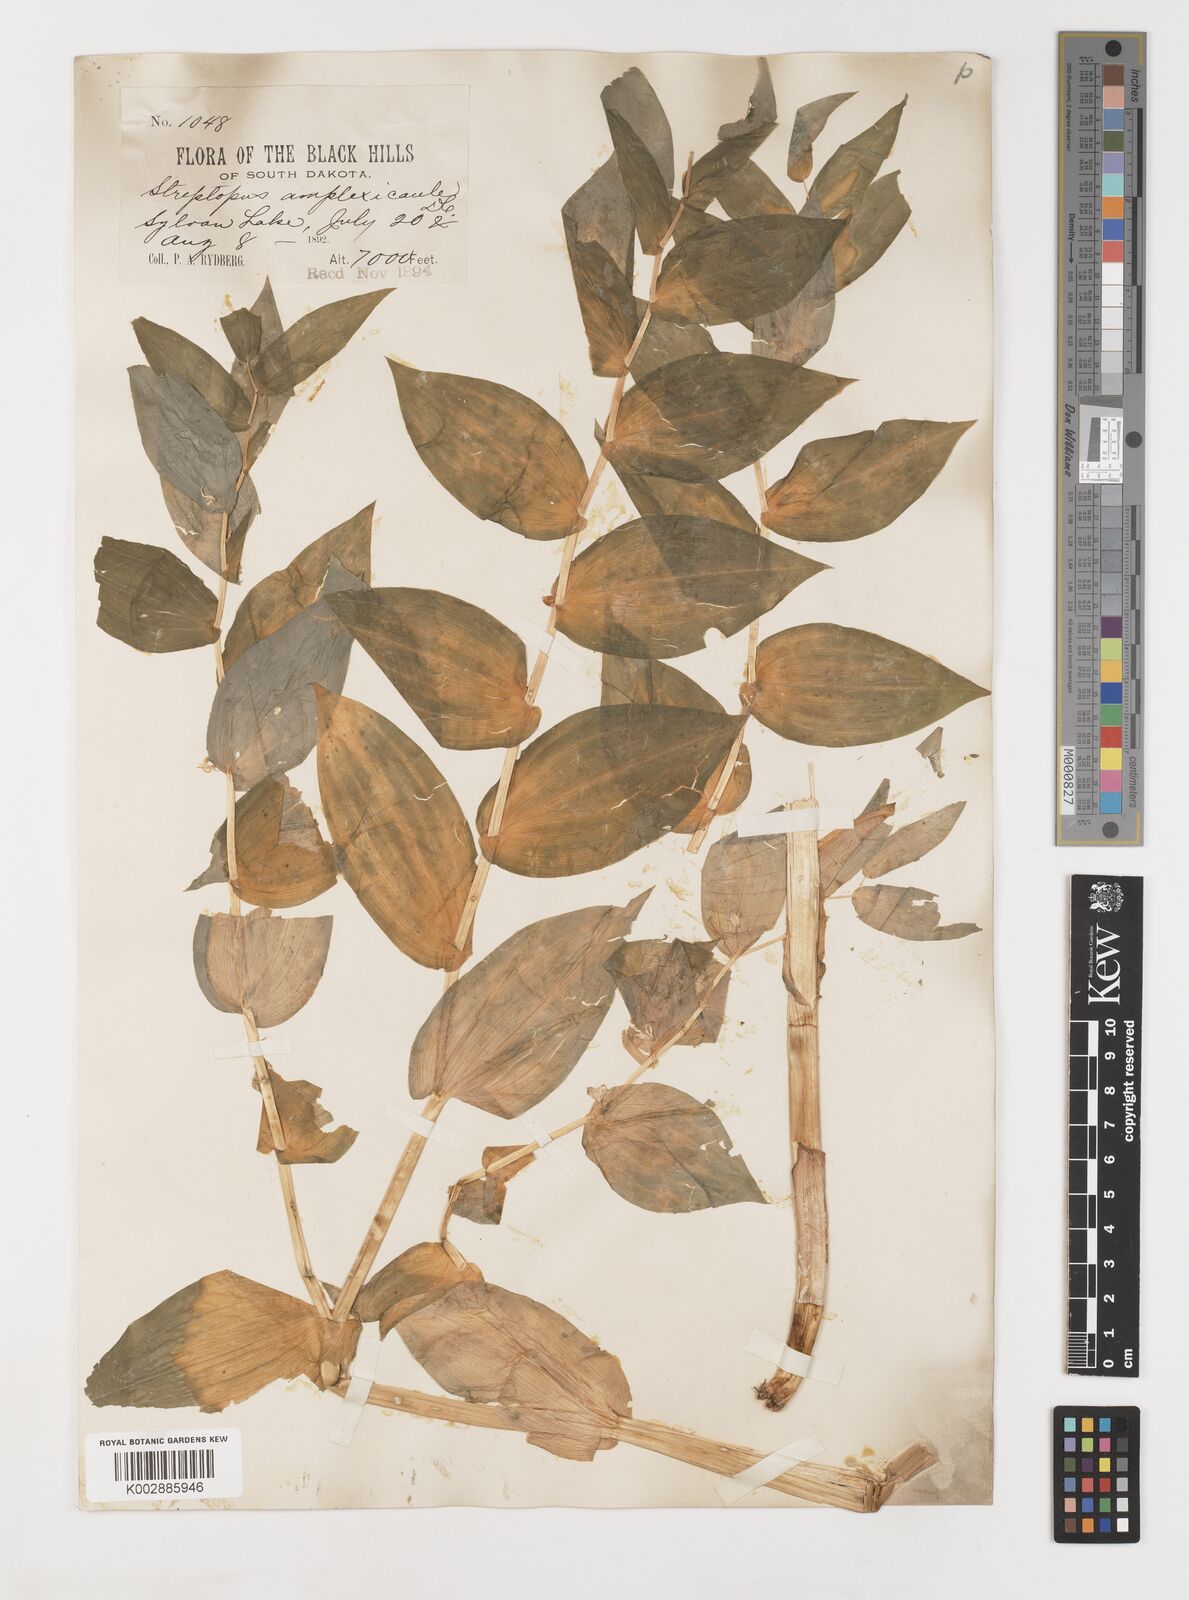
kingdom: Plantae
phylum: Tracheophyta
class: Liliopsida
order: Liliales
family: Liliaceae
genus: Streptopus
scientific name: Streptopus amplexifolius
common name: Clasp twisted stalk
